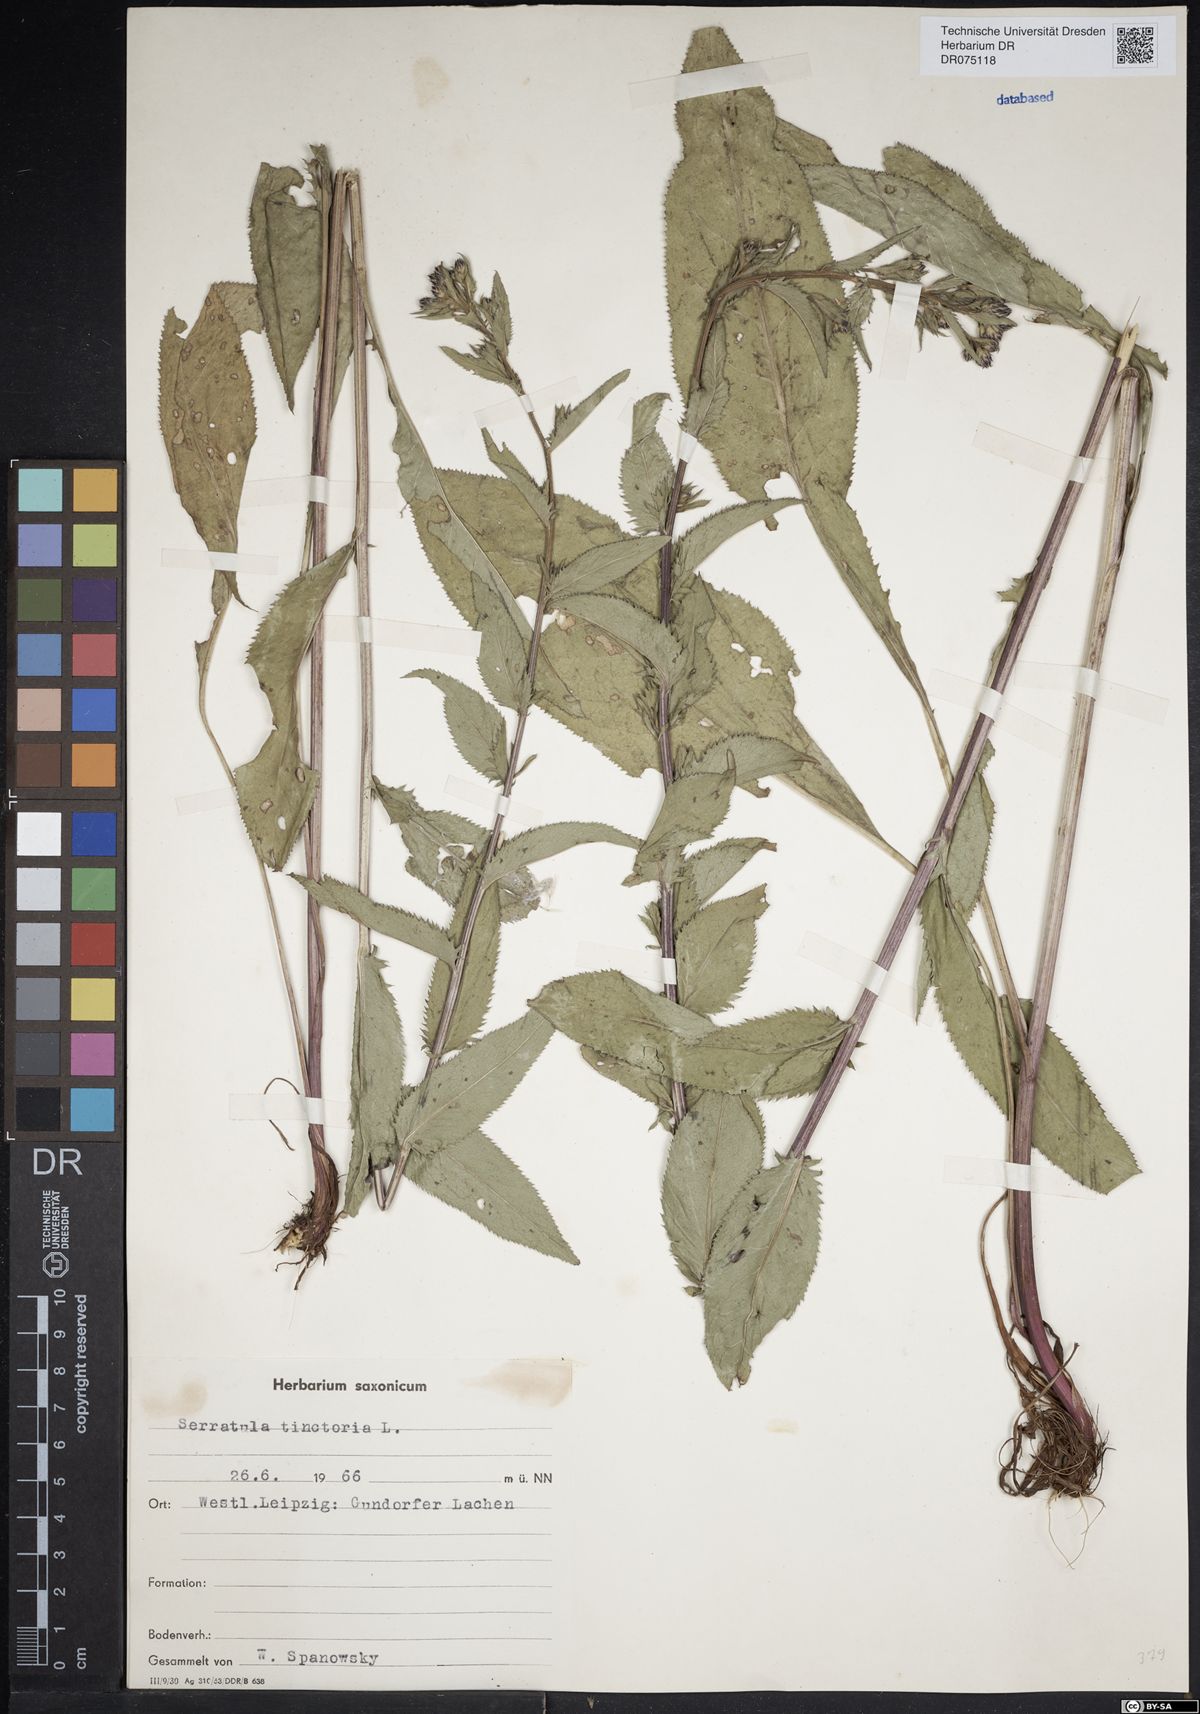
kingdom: Plantae
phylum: Tracheophyta
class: Magnoliopsida
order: Asterales
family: Asteraceae
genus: Serratula
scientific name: Serratula tinctoria
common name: Saw-wort
